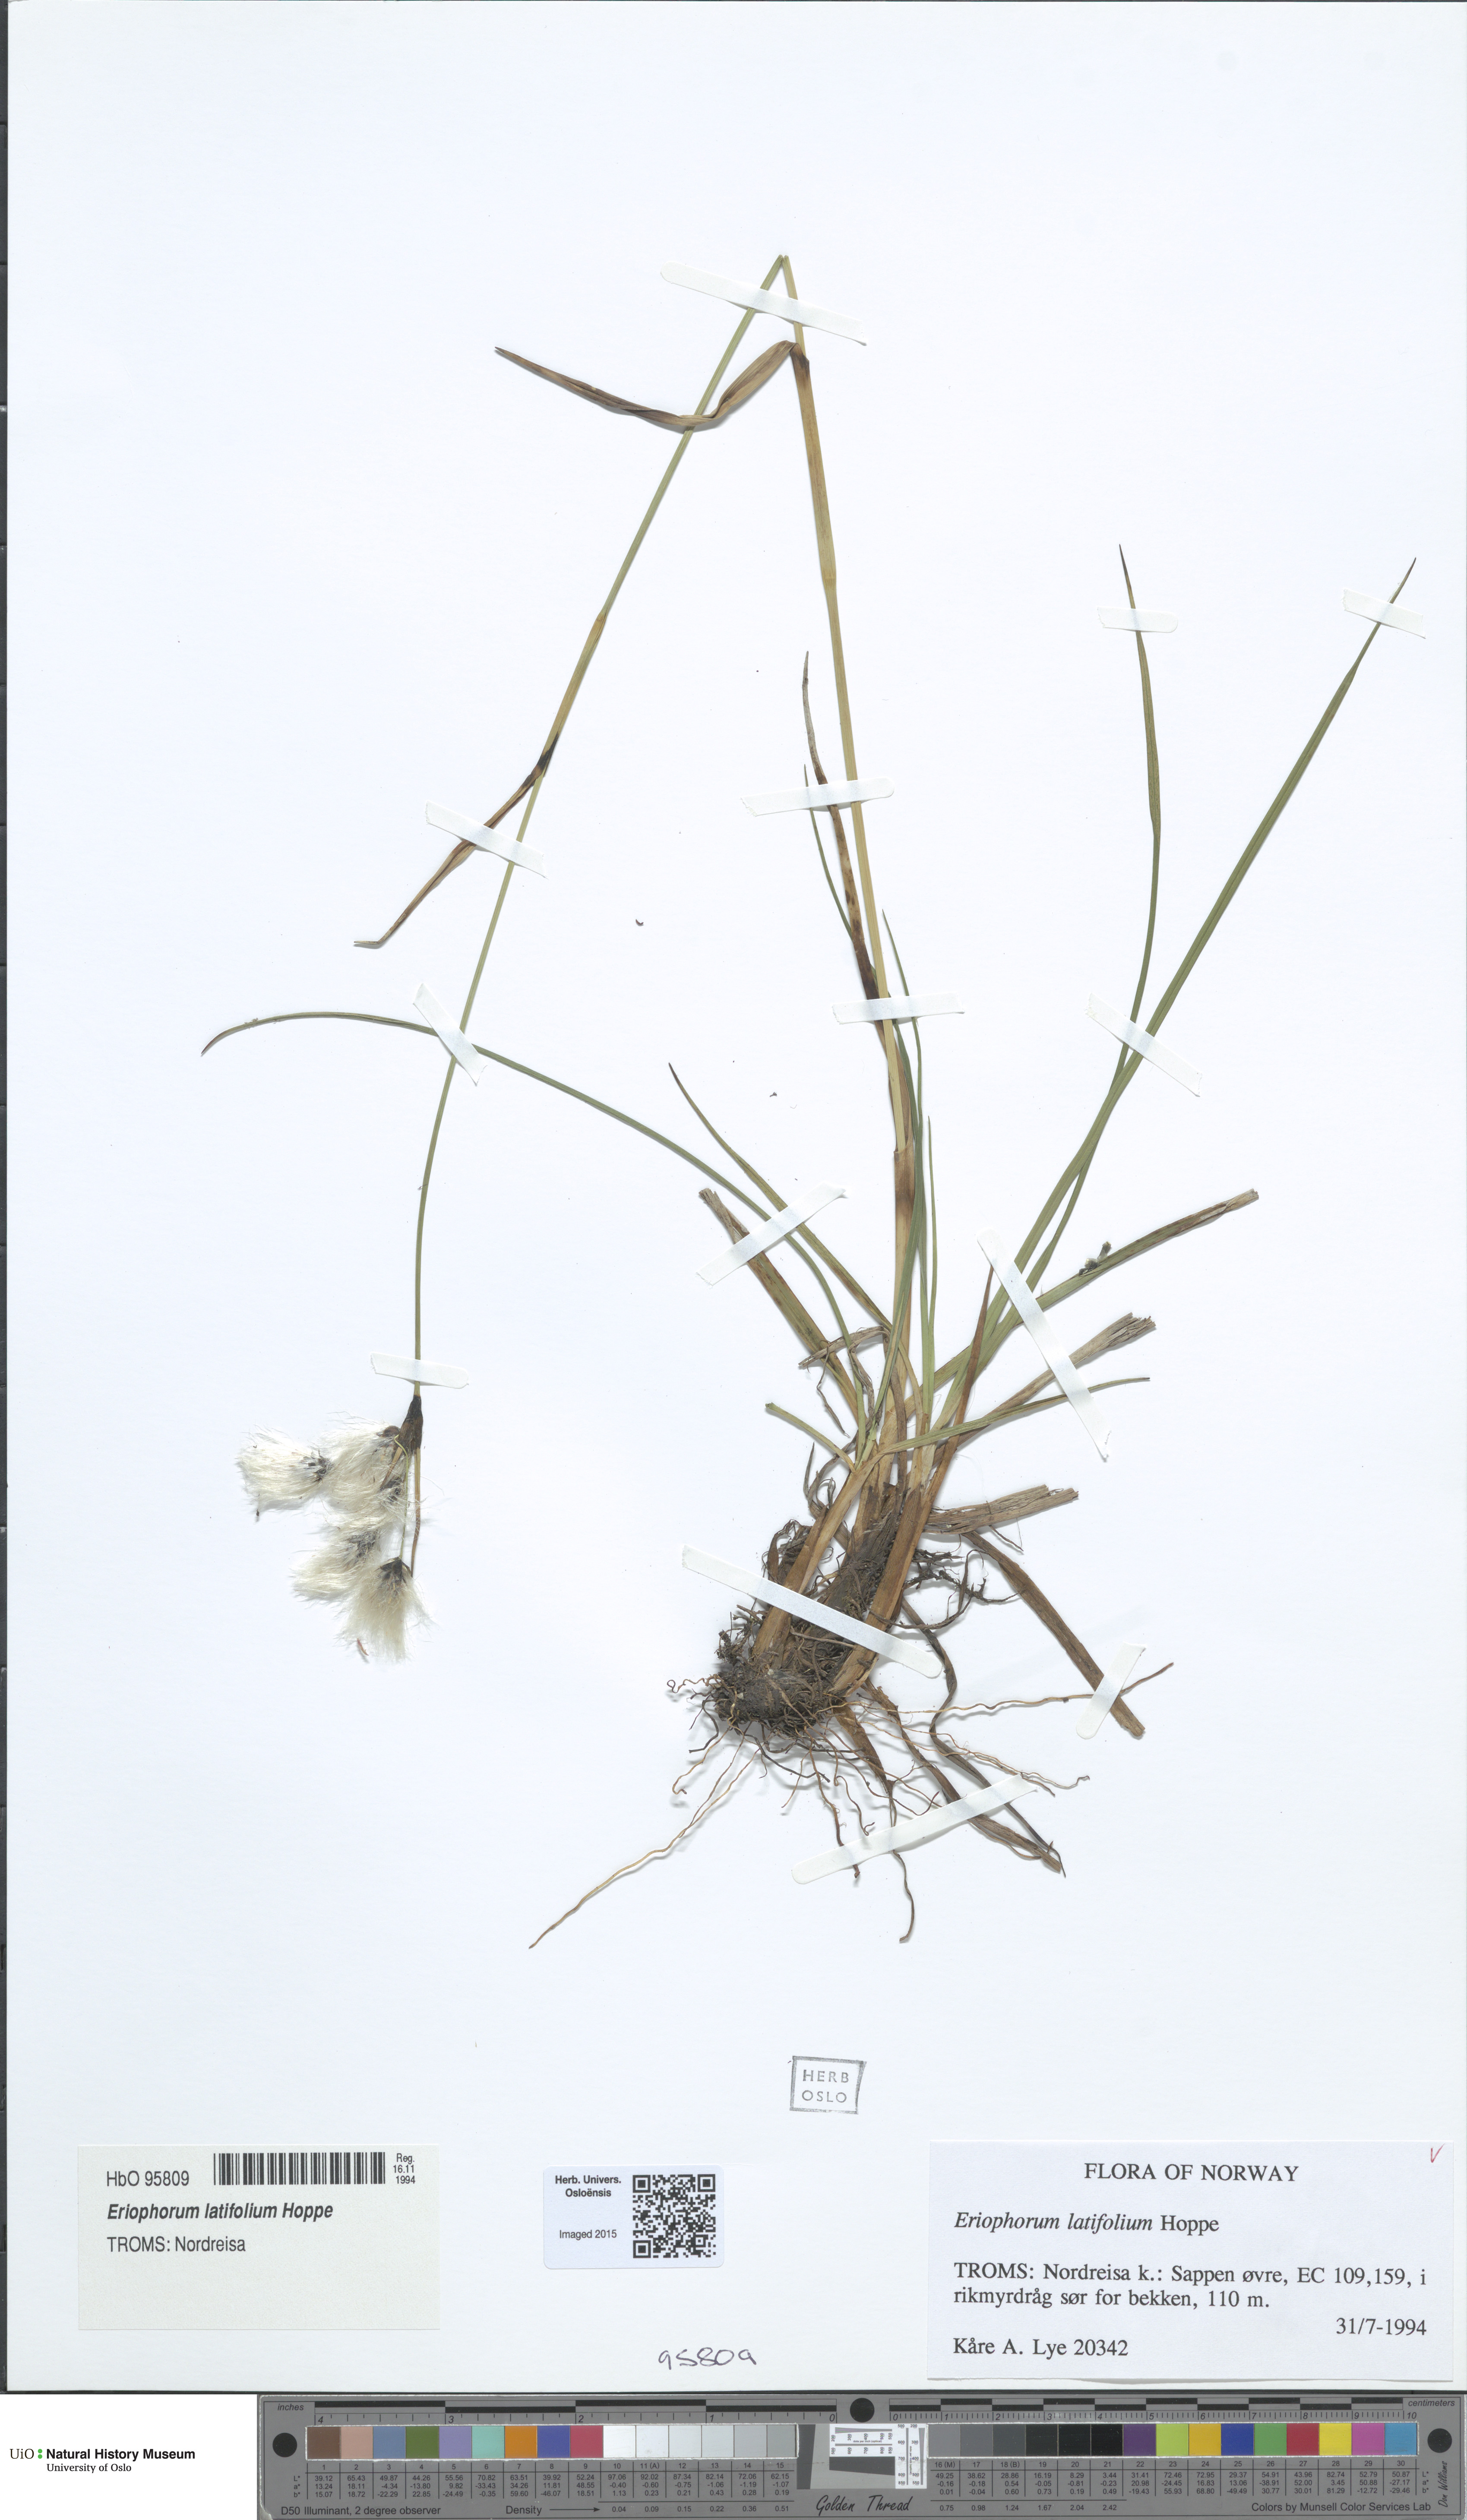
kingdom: Plantae
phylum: Tracheophyta
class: Liliopsida
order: Poales
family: Cyperaceae
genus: Eriophorum
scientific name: Eriophorum latifolium
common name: Broad-leaved cottongrass
